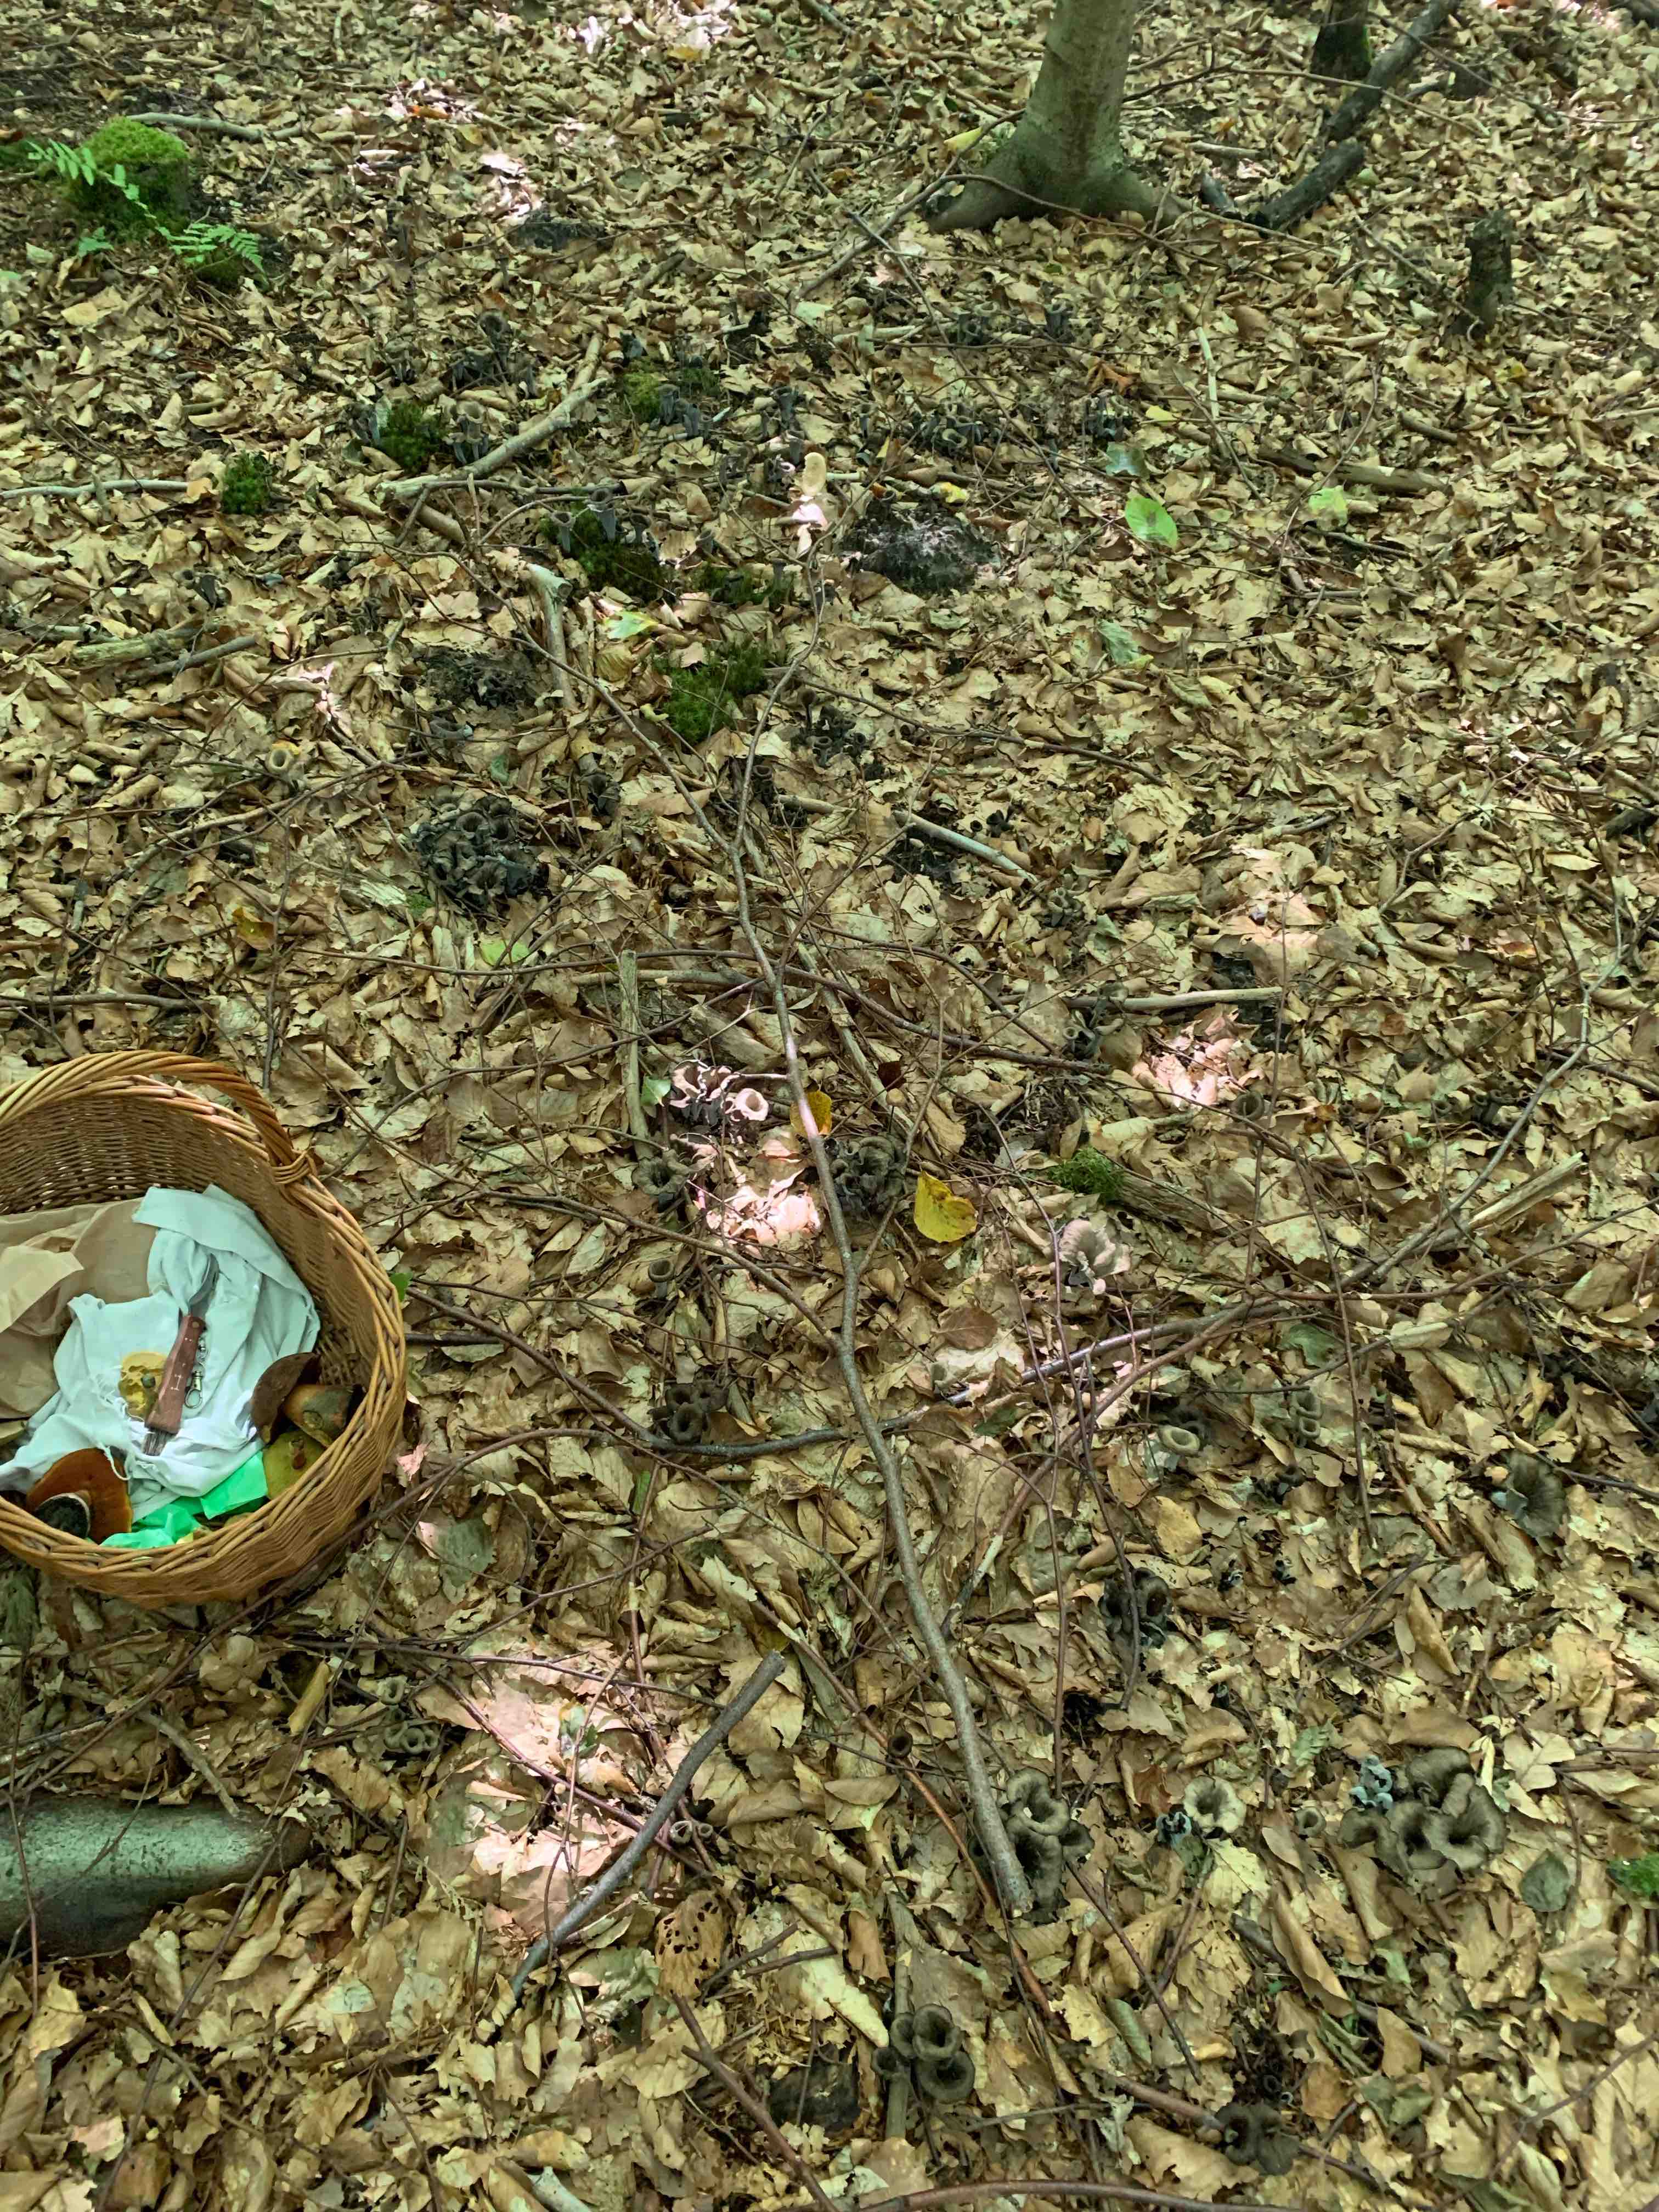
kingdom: Fungi
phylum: Basidiomycota
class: Agaricomycetes
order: Cantharellales
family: Hydnaceae
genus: Craterellus
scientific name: Craterellus cornucopioides
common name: trompetsvamp
